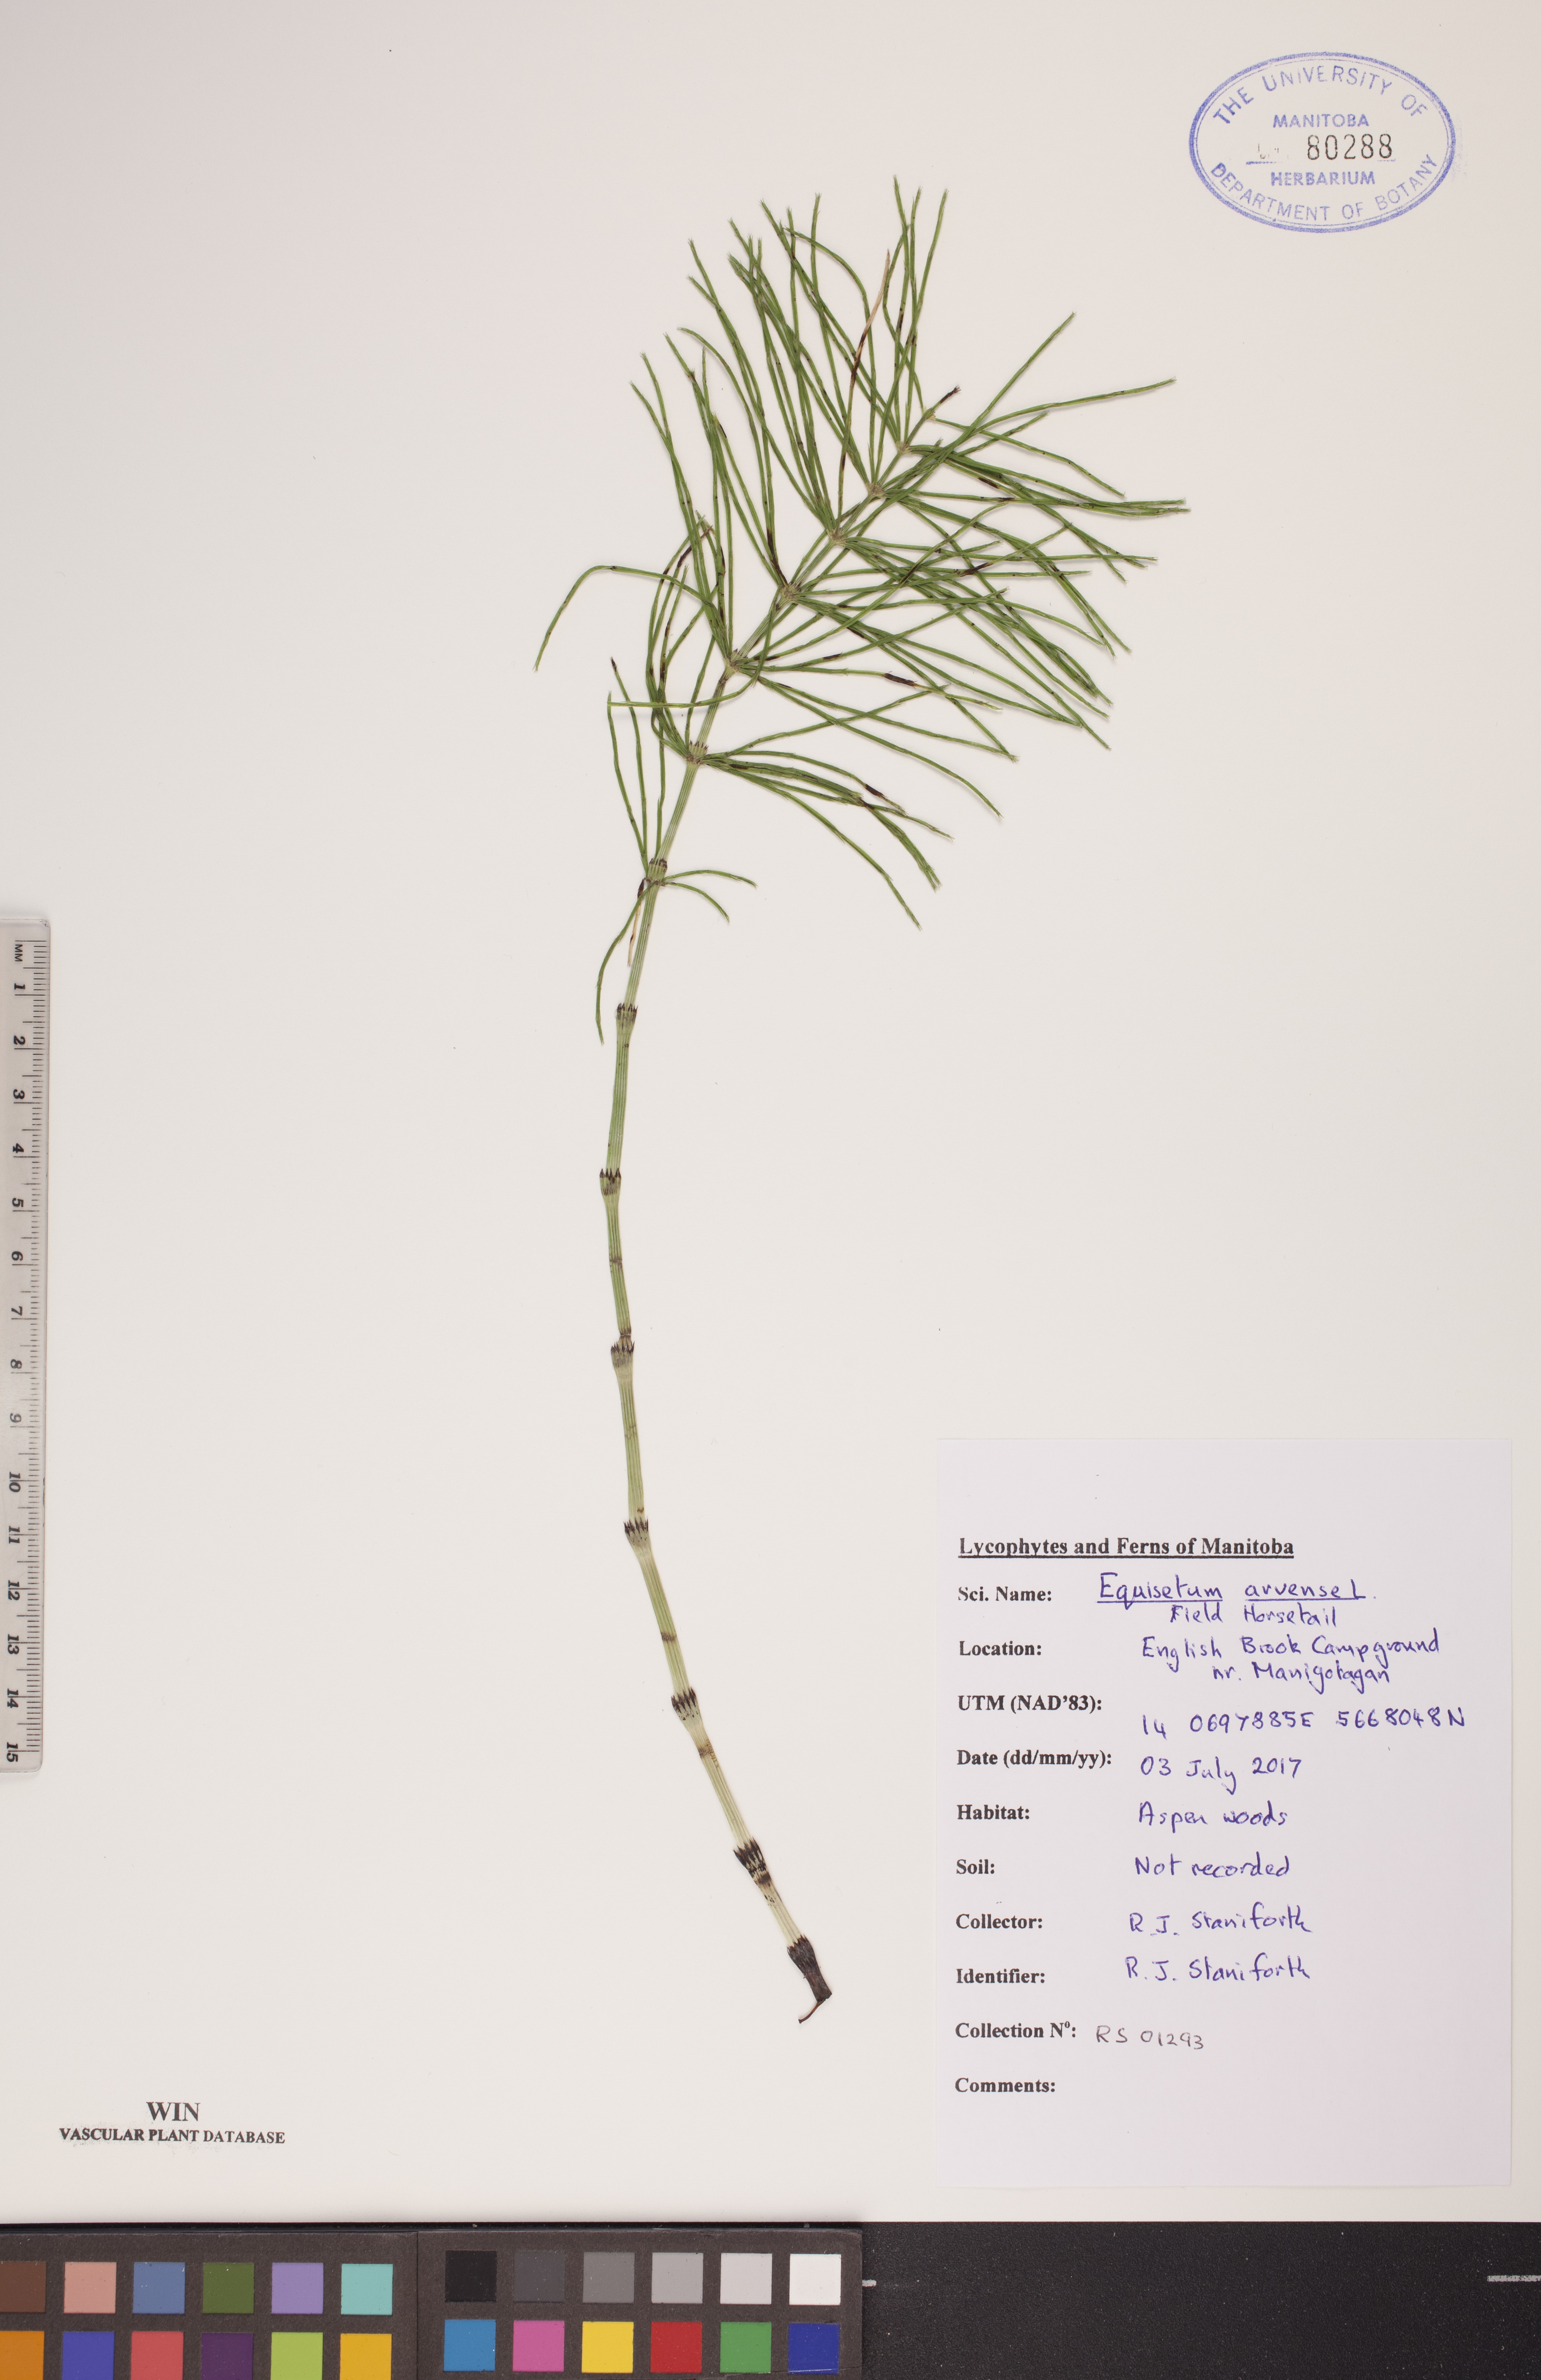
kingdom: Plantae
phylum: Tracheophyta
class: Polypodiopsida
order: Equisetales
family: Equisetaceae
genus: Equisetum
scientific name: Equisetum arvense
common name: Field horsetail
